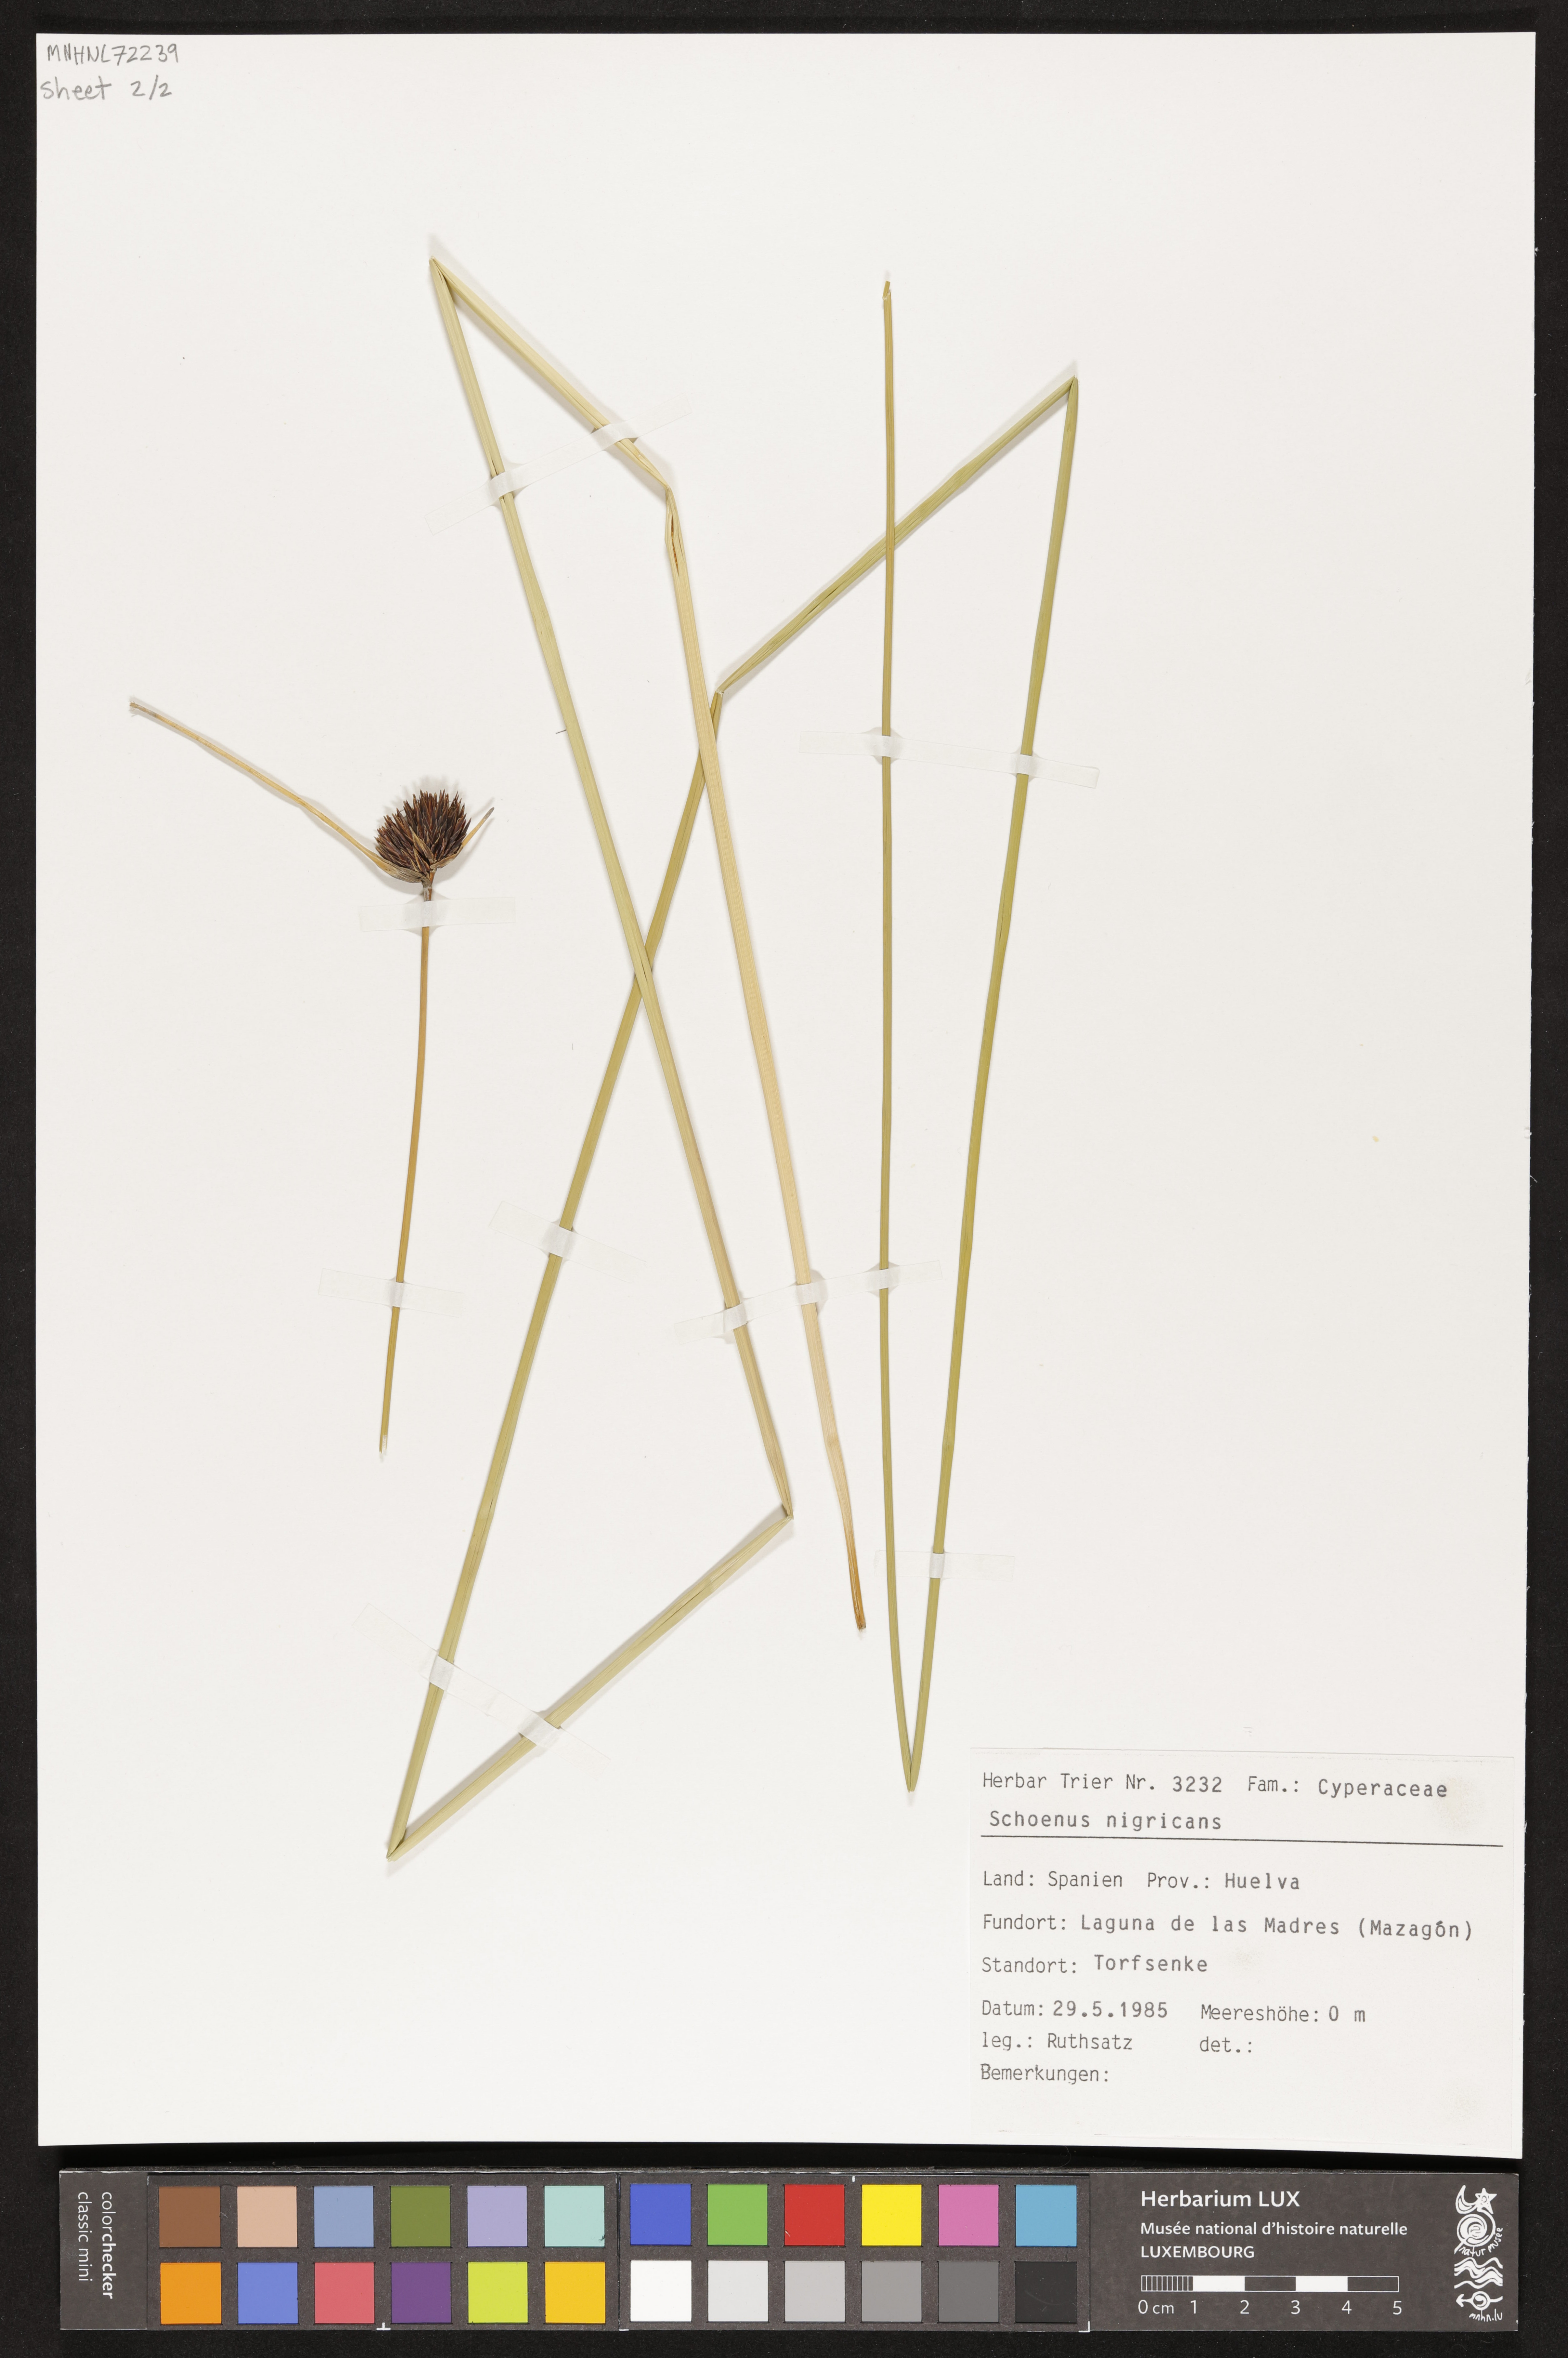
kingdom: Plantae
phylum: Tracheophyta
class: Liliopsida
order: Poales
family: Cyperaceae
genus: Schoenus
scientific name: Schoenus nigricans
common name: Black bog-rush
